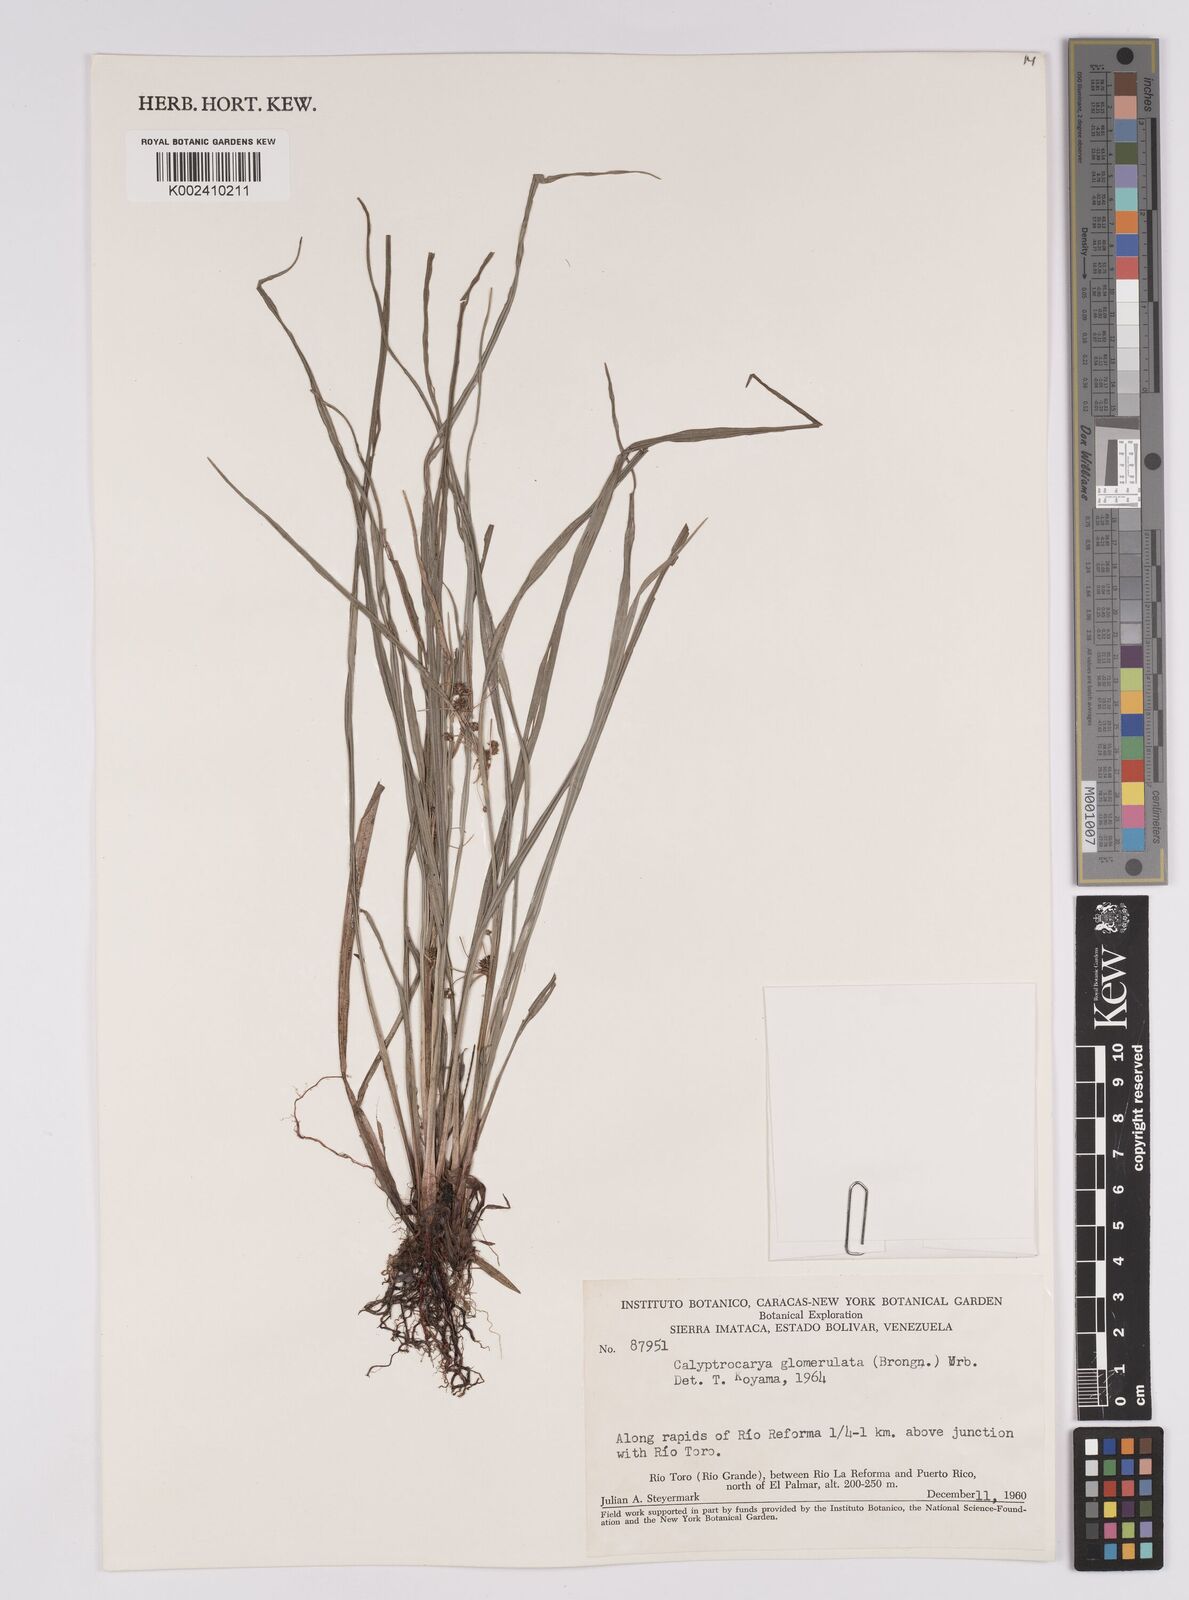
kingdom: Plantae
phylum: Tracheophyta
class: Liliopsida
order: Poales
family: Cyperaceae
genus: Calyptrocarya
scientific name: Calyptrocarya glomerulata
